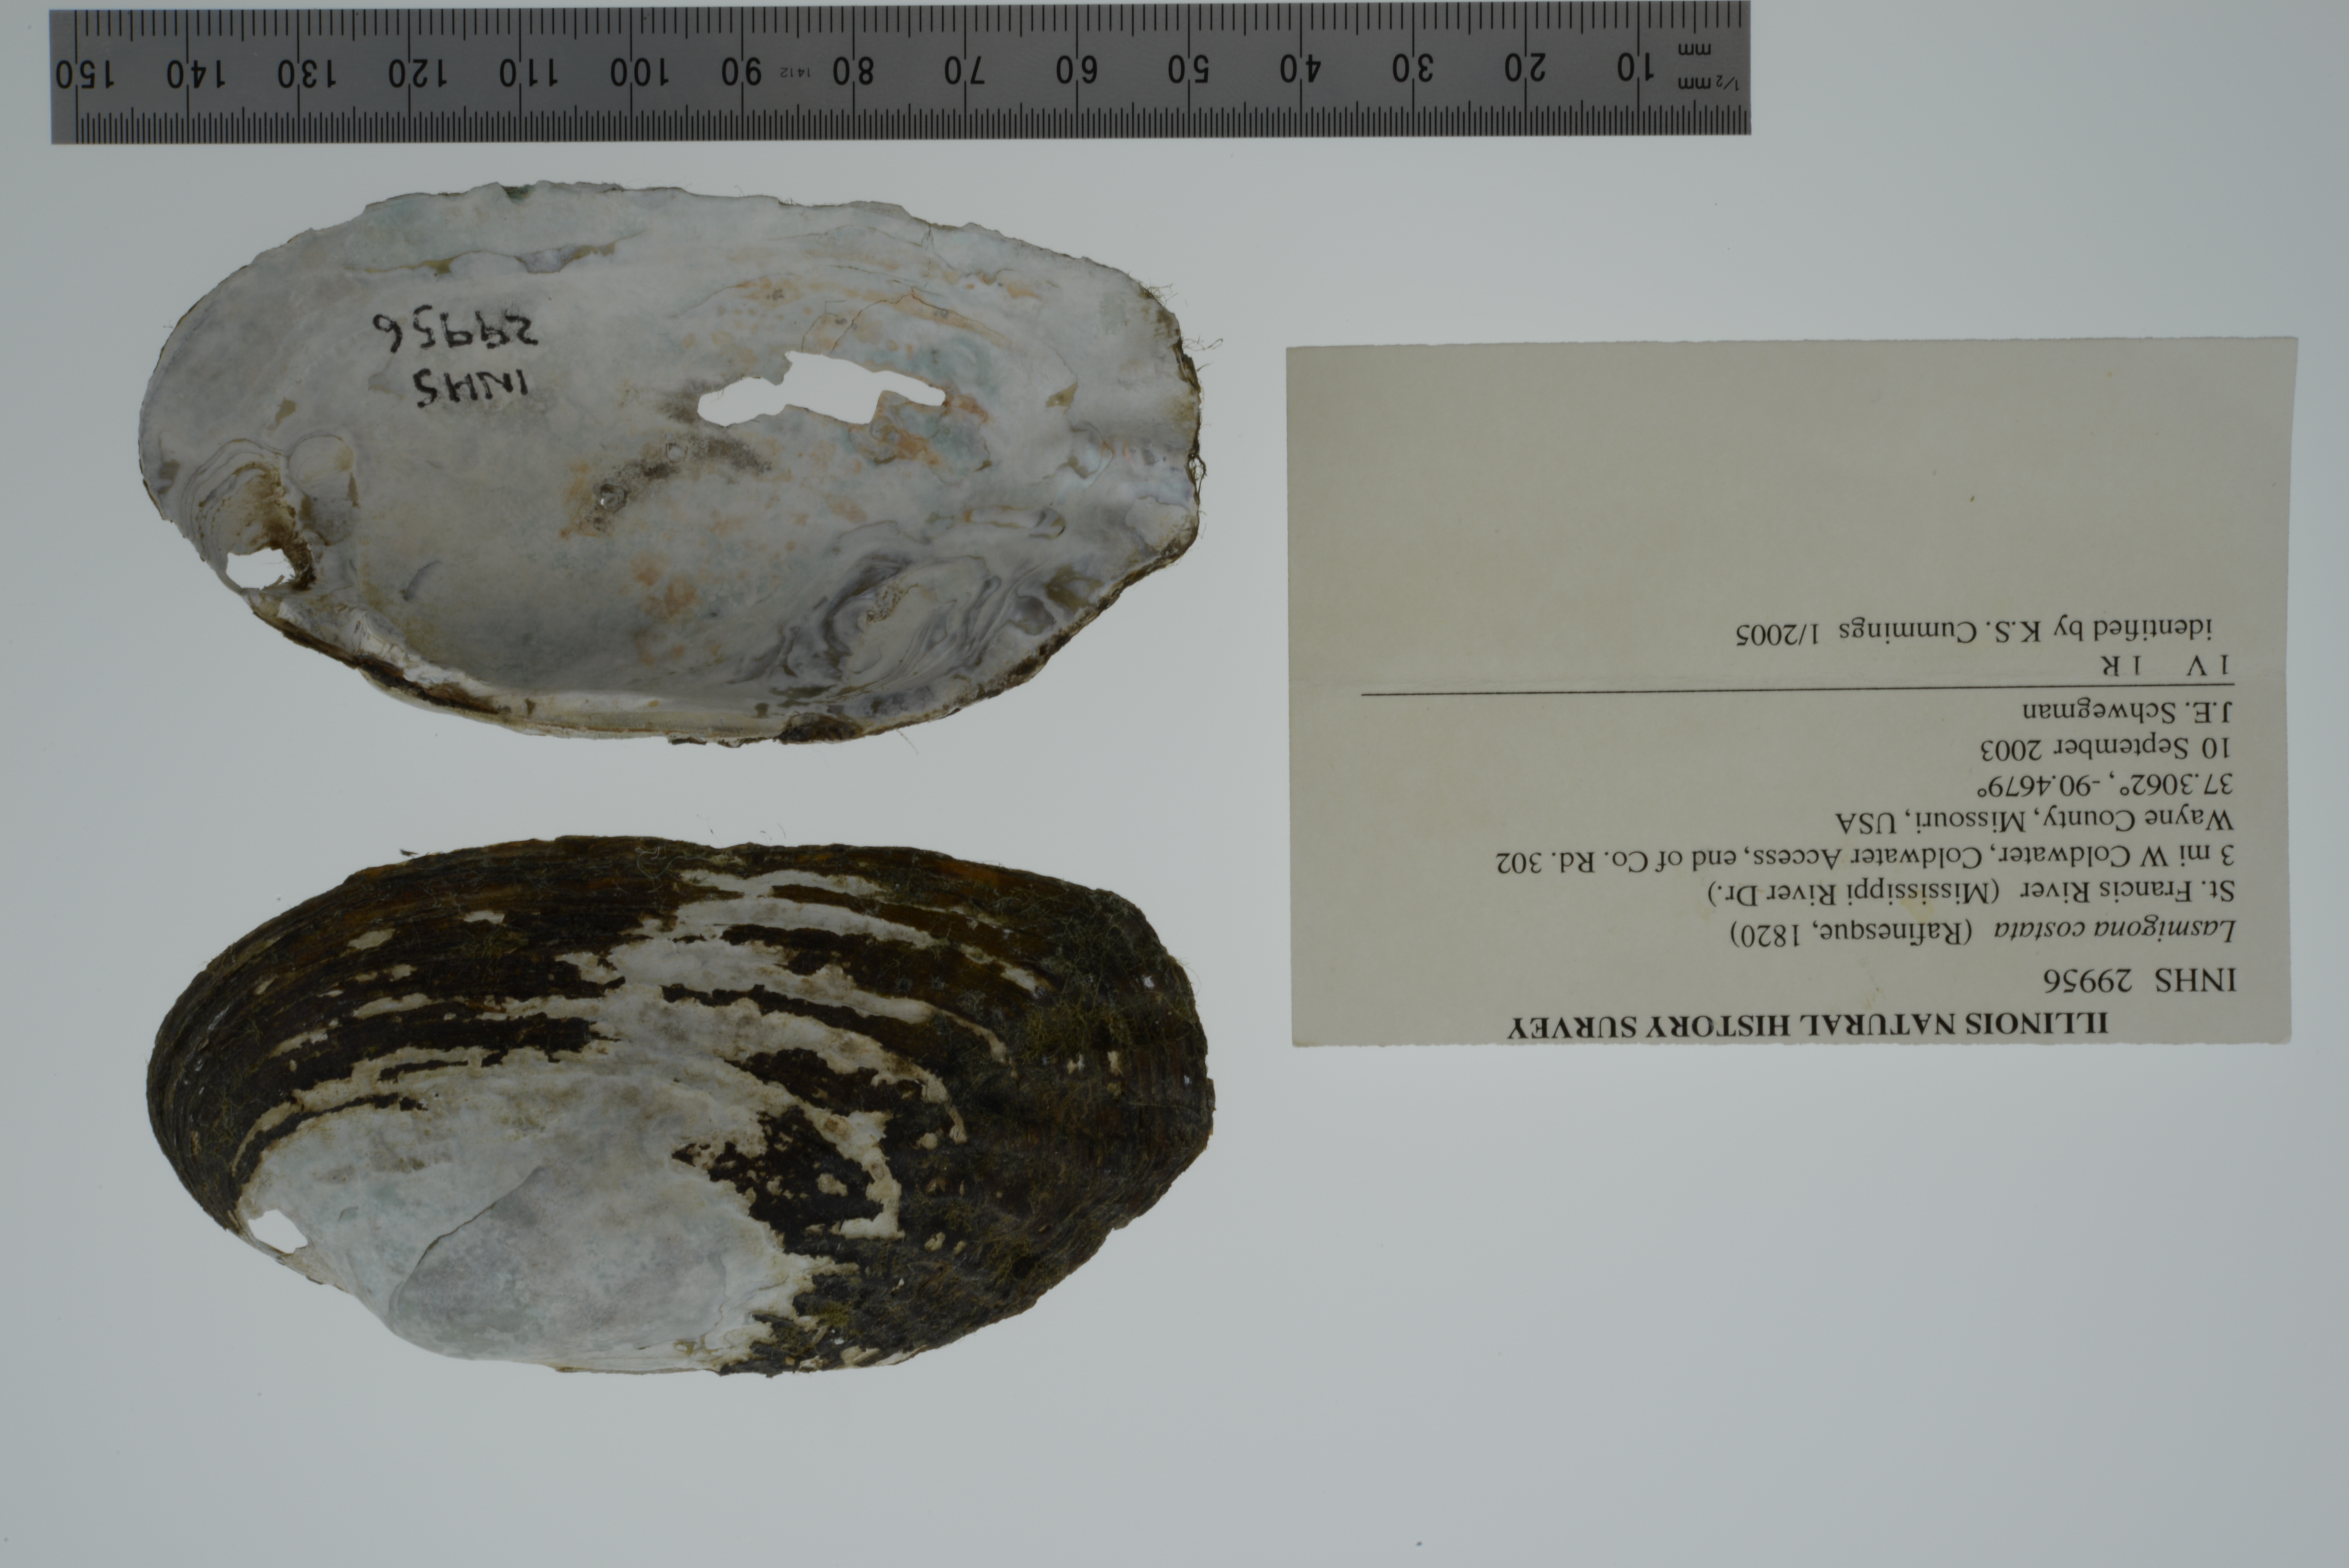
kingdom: Animalia
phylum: Mollusca
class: Bivalvia
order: Unionida
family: Unionidae
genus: Lasmigona
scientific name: Lasmigona costata
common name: Flutedshell
